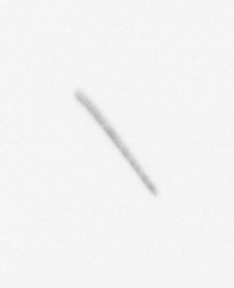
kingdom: Chromista
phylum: Ochrophyta
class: Bacillariophyceae
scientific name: Bacillariophyceae
